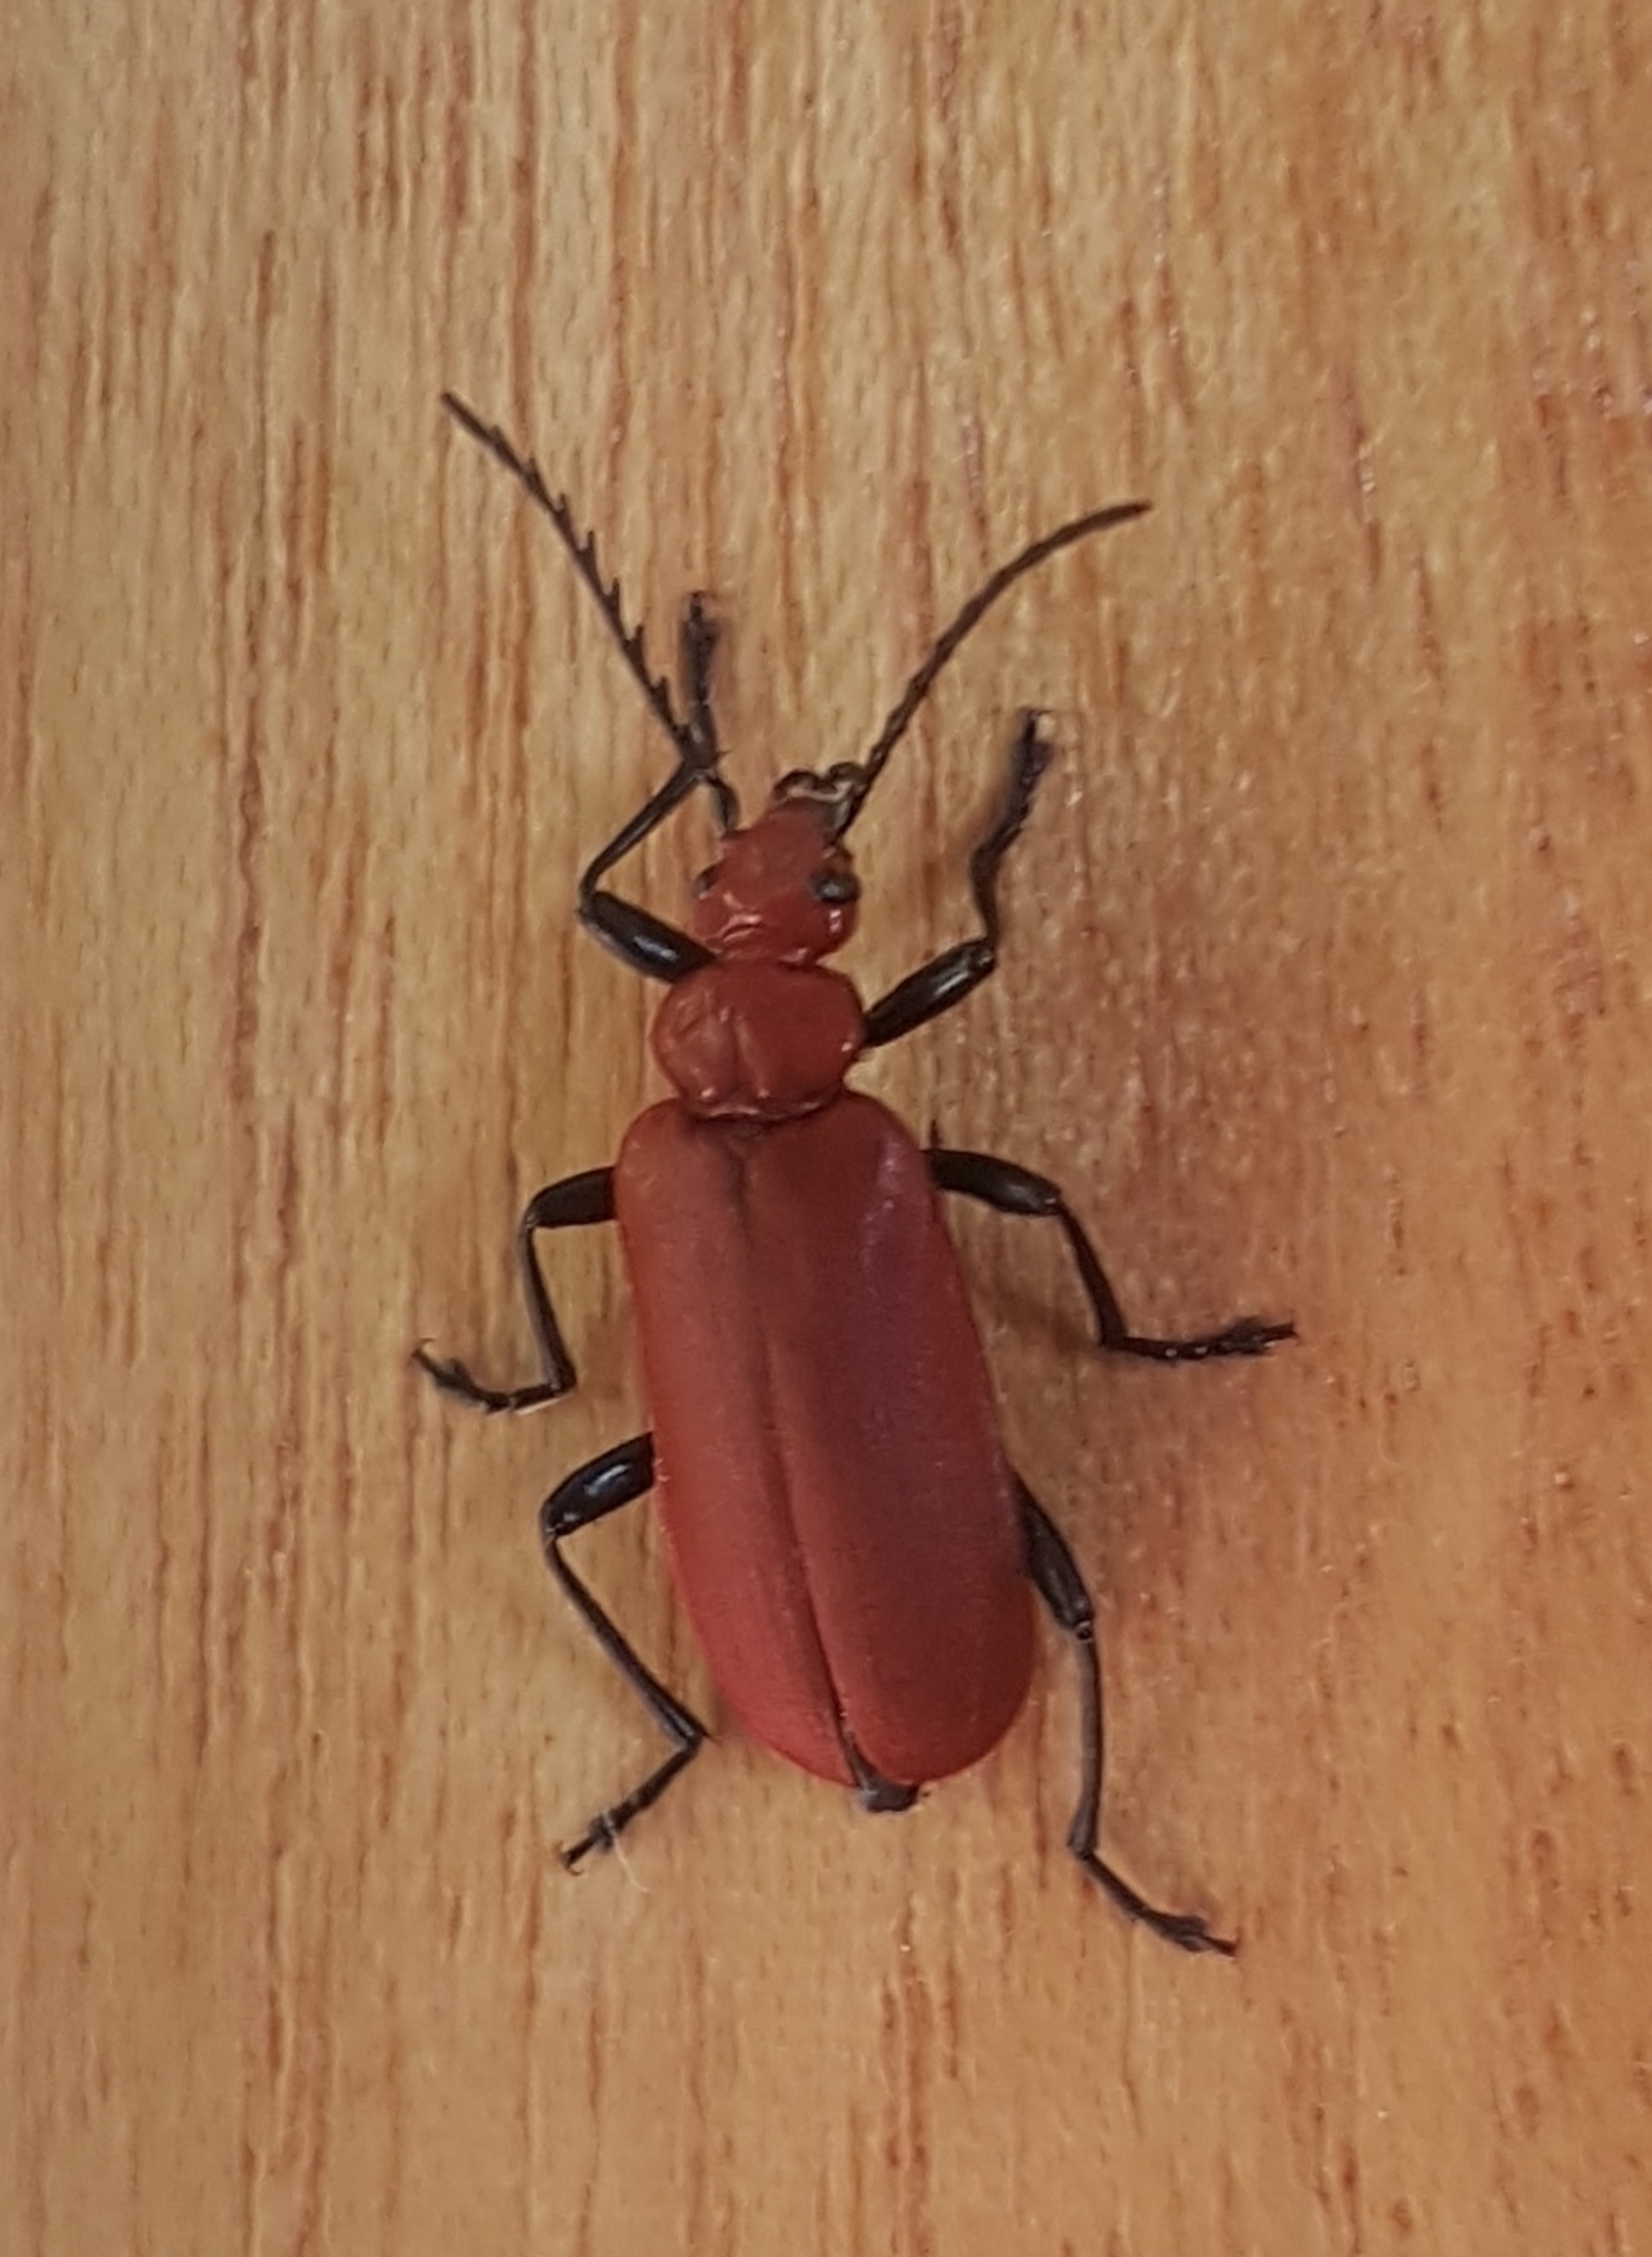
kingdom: Animalia
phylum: Arthropoda
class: Insecta
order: Coleoptera
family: Pyrochroidae
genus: Pyrochroa
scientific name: Pyrochroa serraticornis
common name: Rødhovedet kardinalbille
